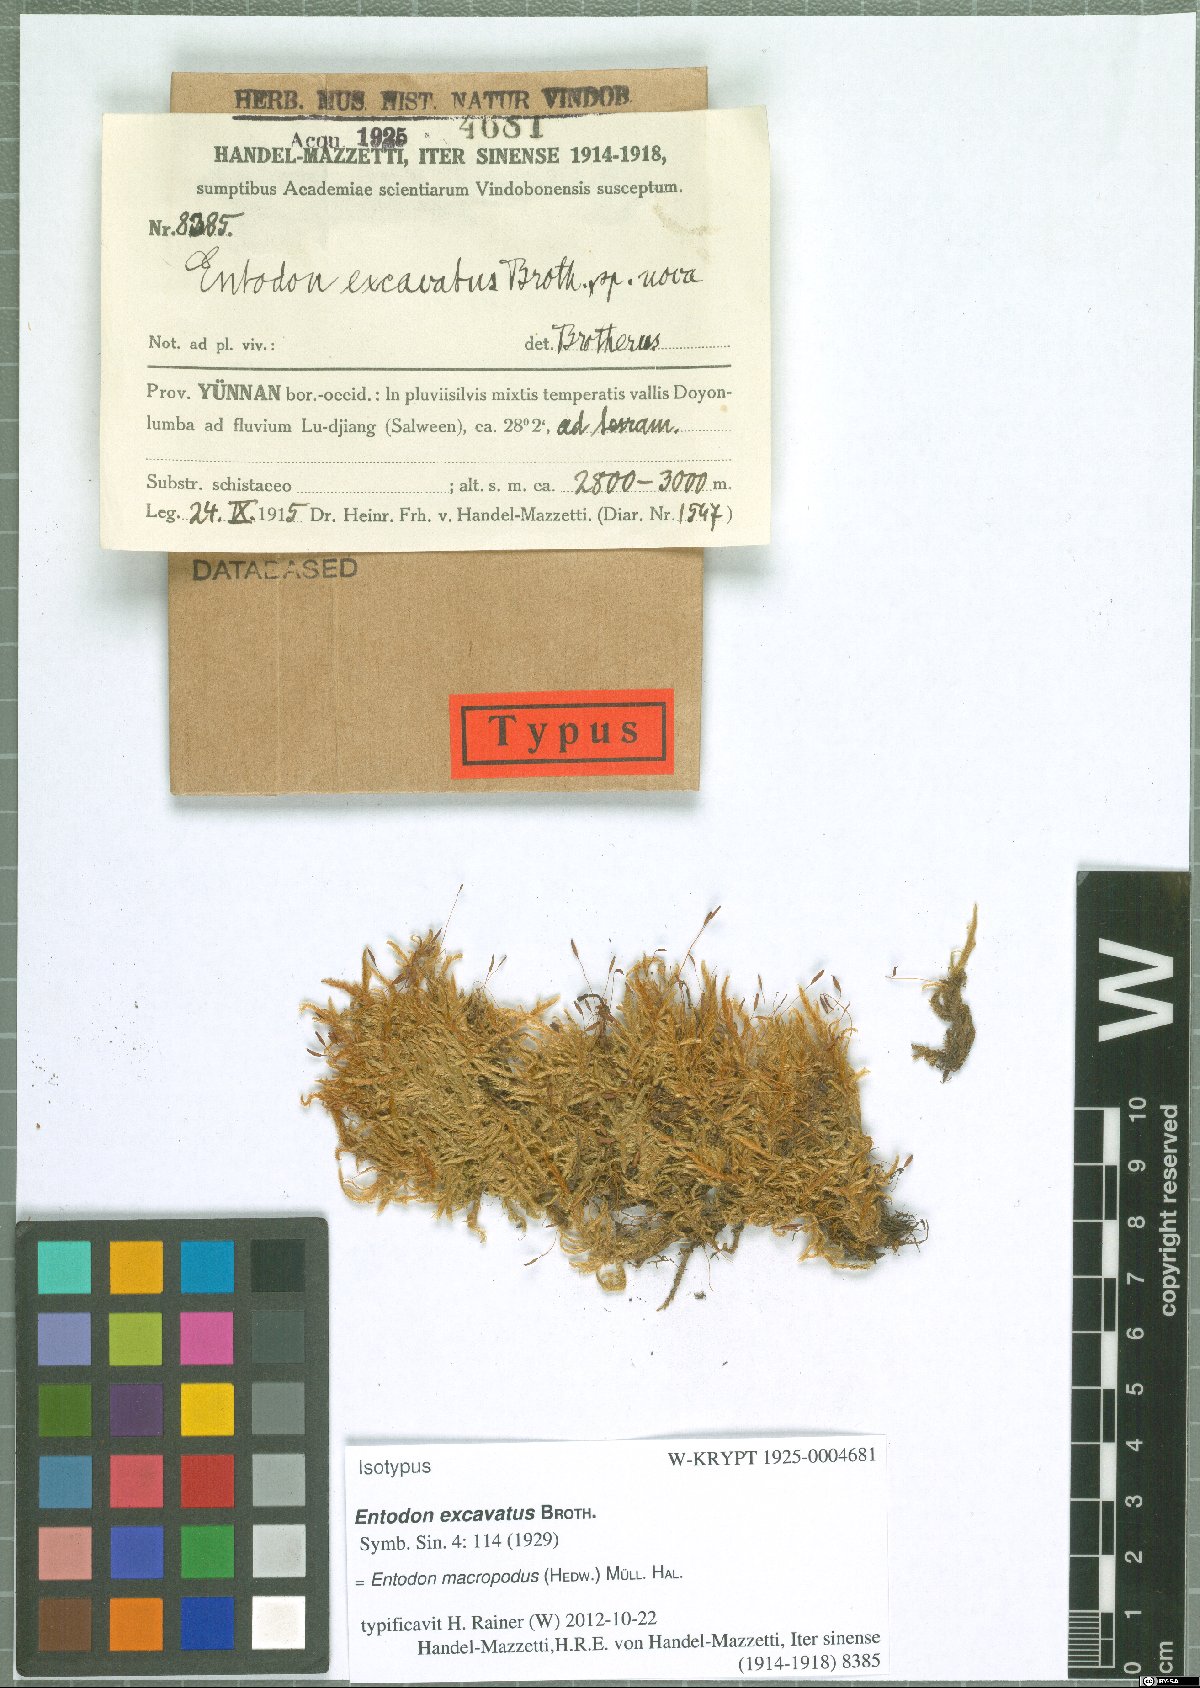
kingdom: Plantae
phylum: Bryophyta
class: Bryopsida
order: Hypnales
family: Entodontaceae
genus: Entodon
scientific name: Entodon dolichocucullatus
